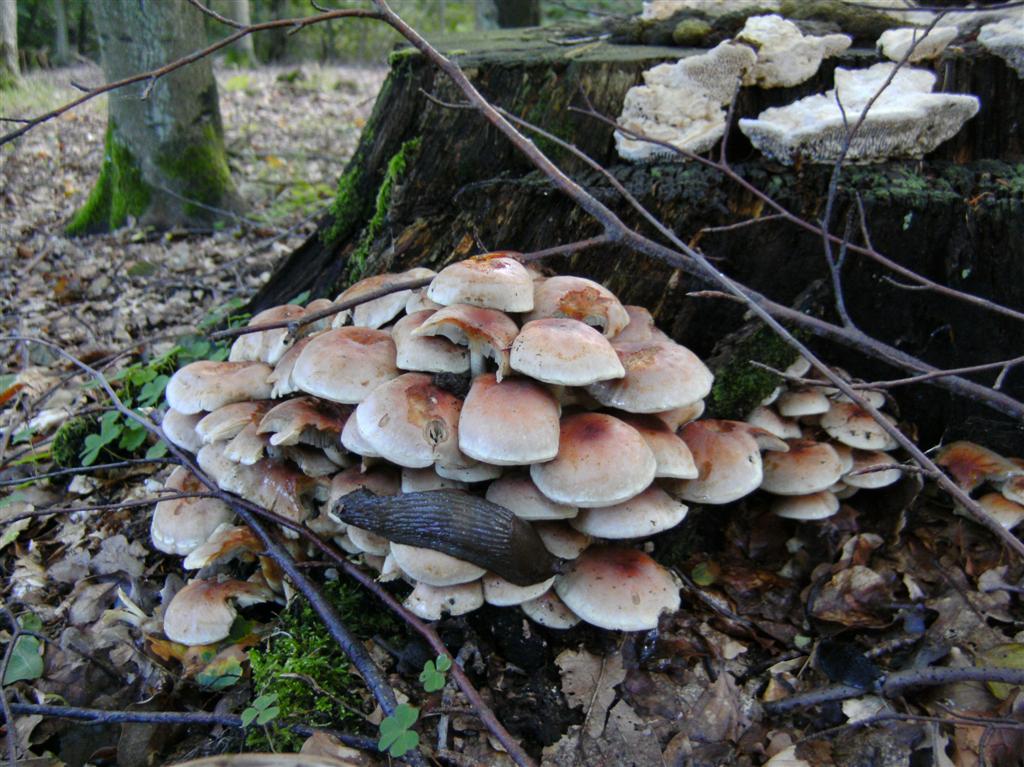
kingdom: Fungi
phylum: Basidiomycota
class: Agaricomycetes
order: Agaricales
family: Strophariaceae
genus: Hypholoma
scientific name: Hypholoma lateritium
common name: teglrød svovlhat
